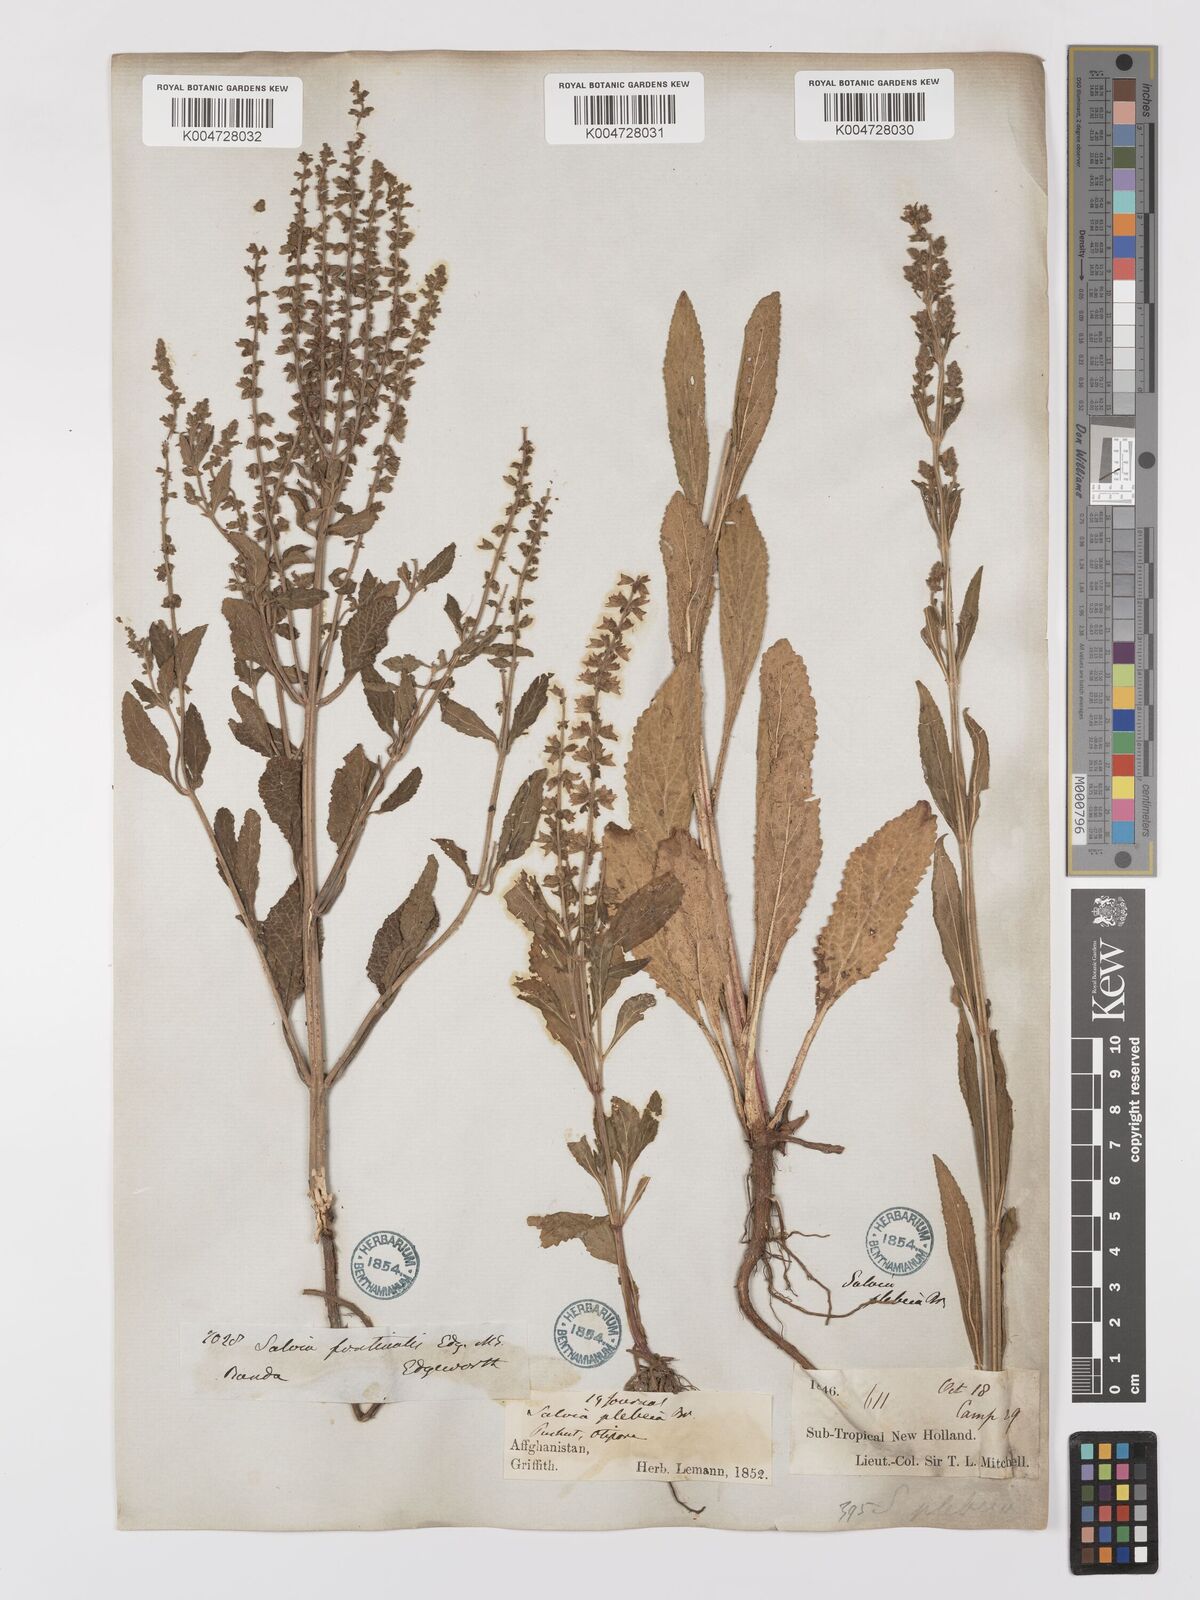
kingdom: Plantae
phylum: Tracheophyta
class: Magnoliopsida
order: Lamiales
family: Lamiaceae
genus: Salvia
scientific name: Salvia plebeia
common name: Australian sage
